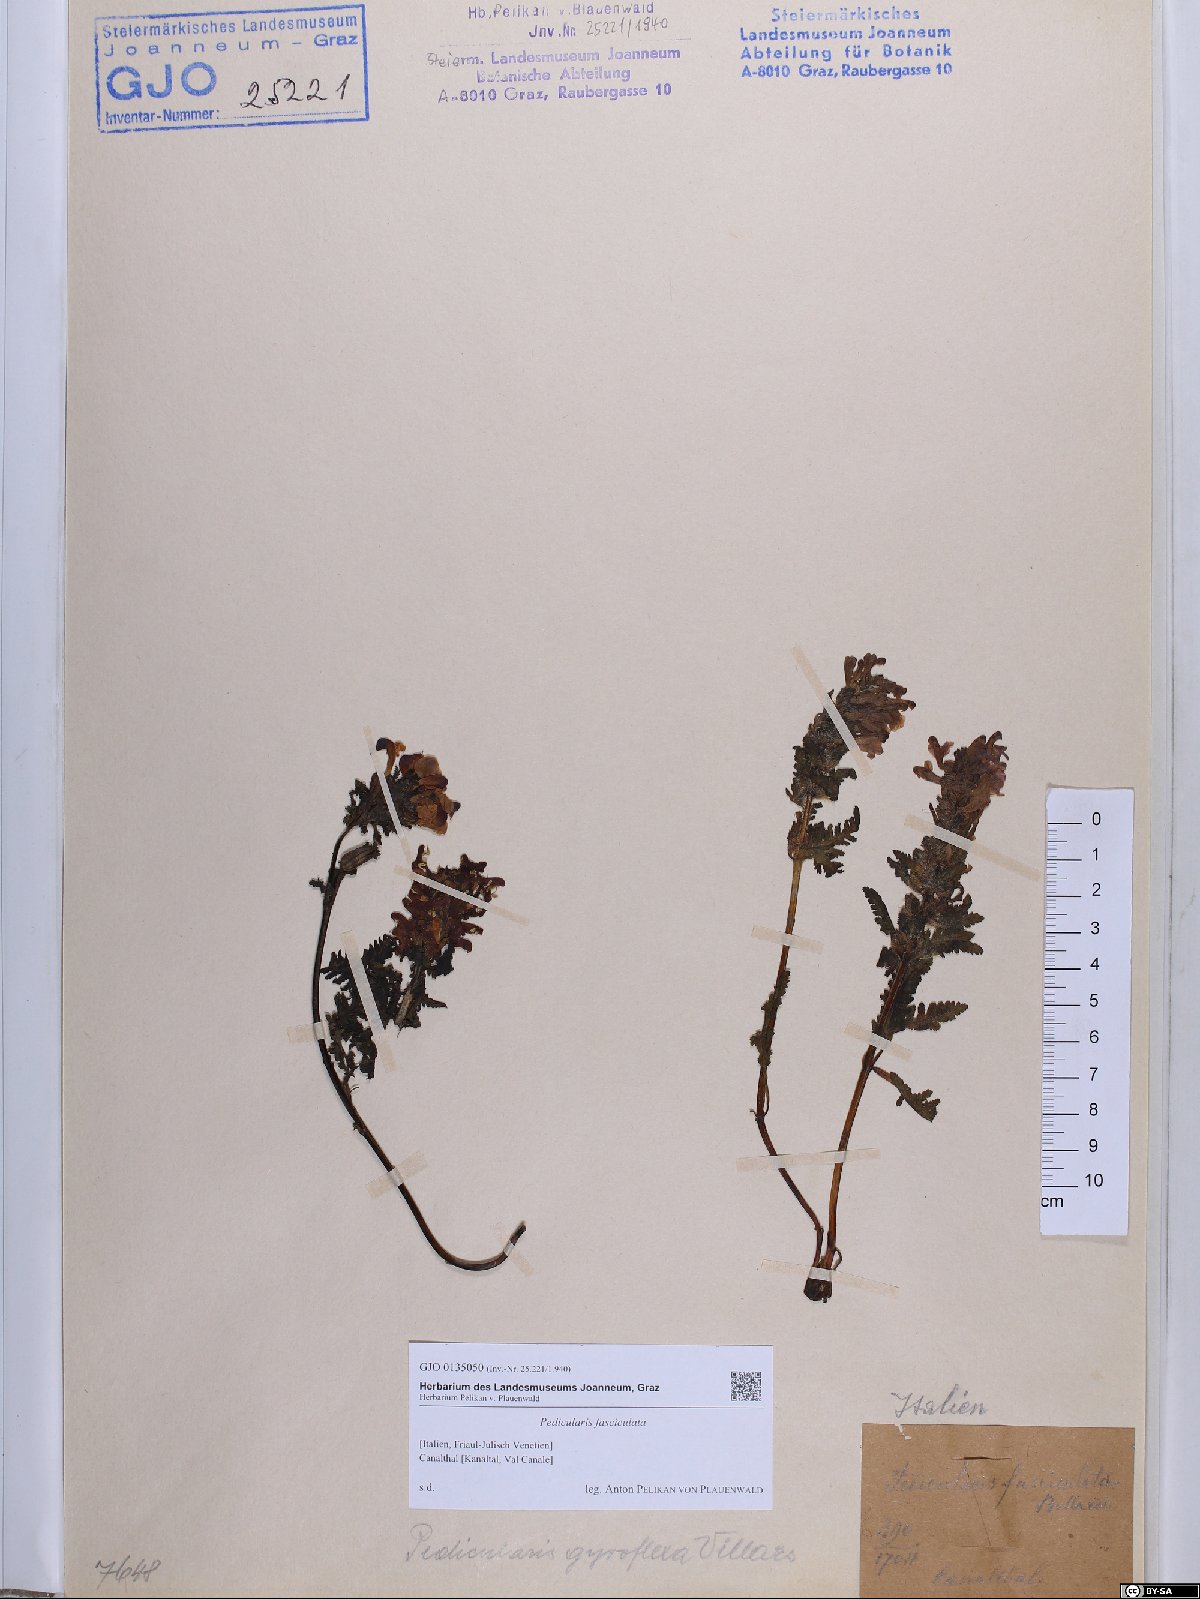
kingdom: Plantae
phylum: Tracheophyta
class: Magnoliopsida
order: Lamiales
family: Orobanchaceae
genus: Pedicularis
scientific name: Pedicularis gyroflexa
